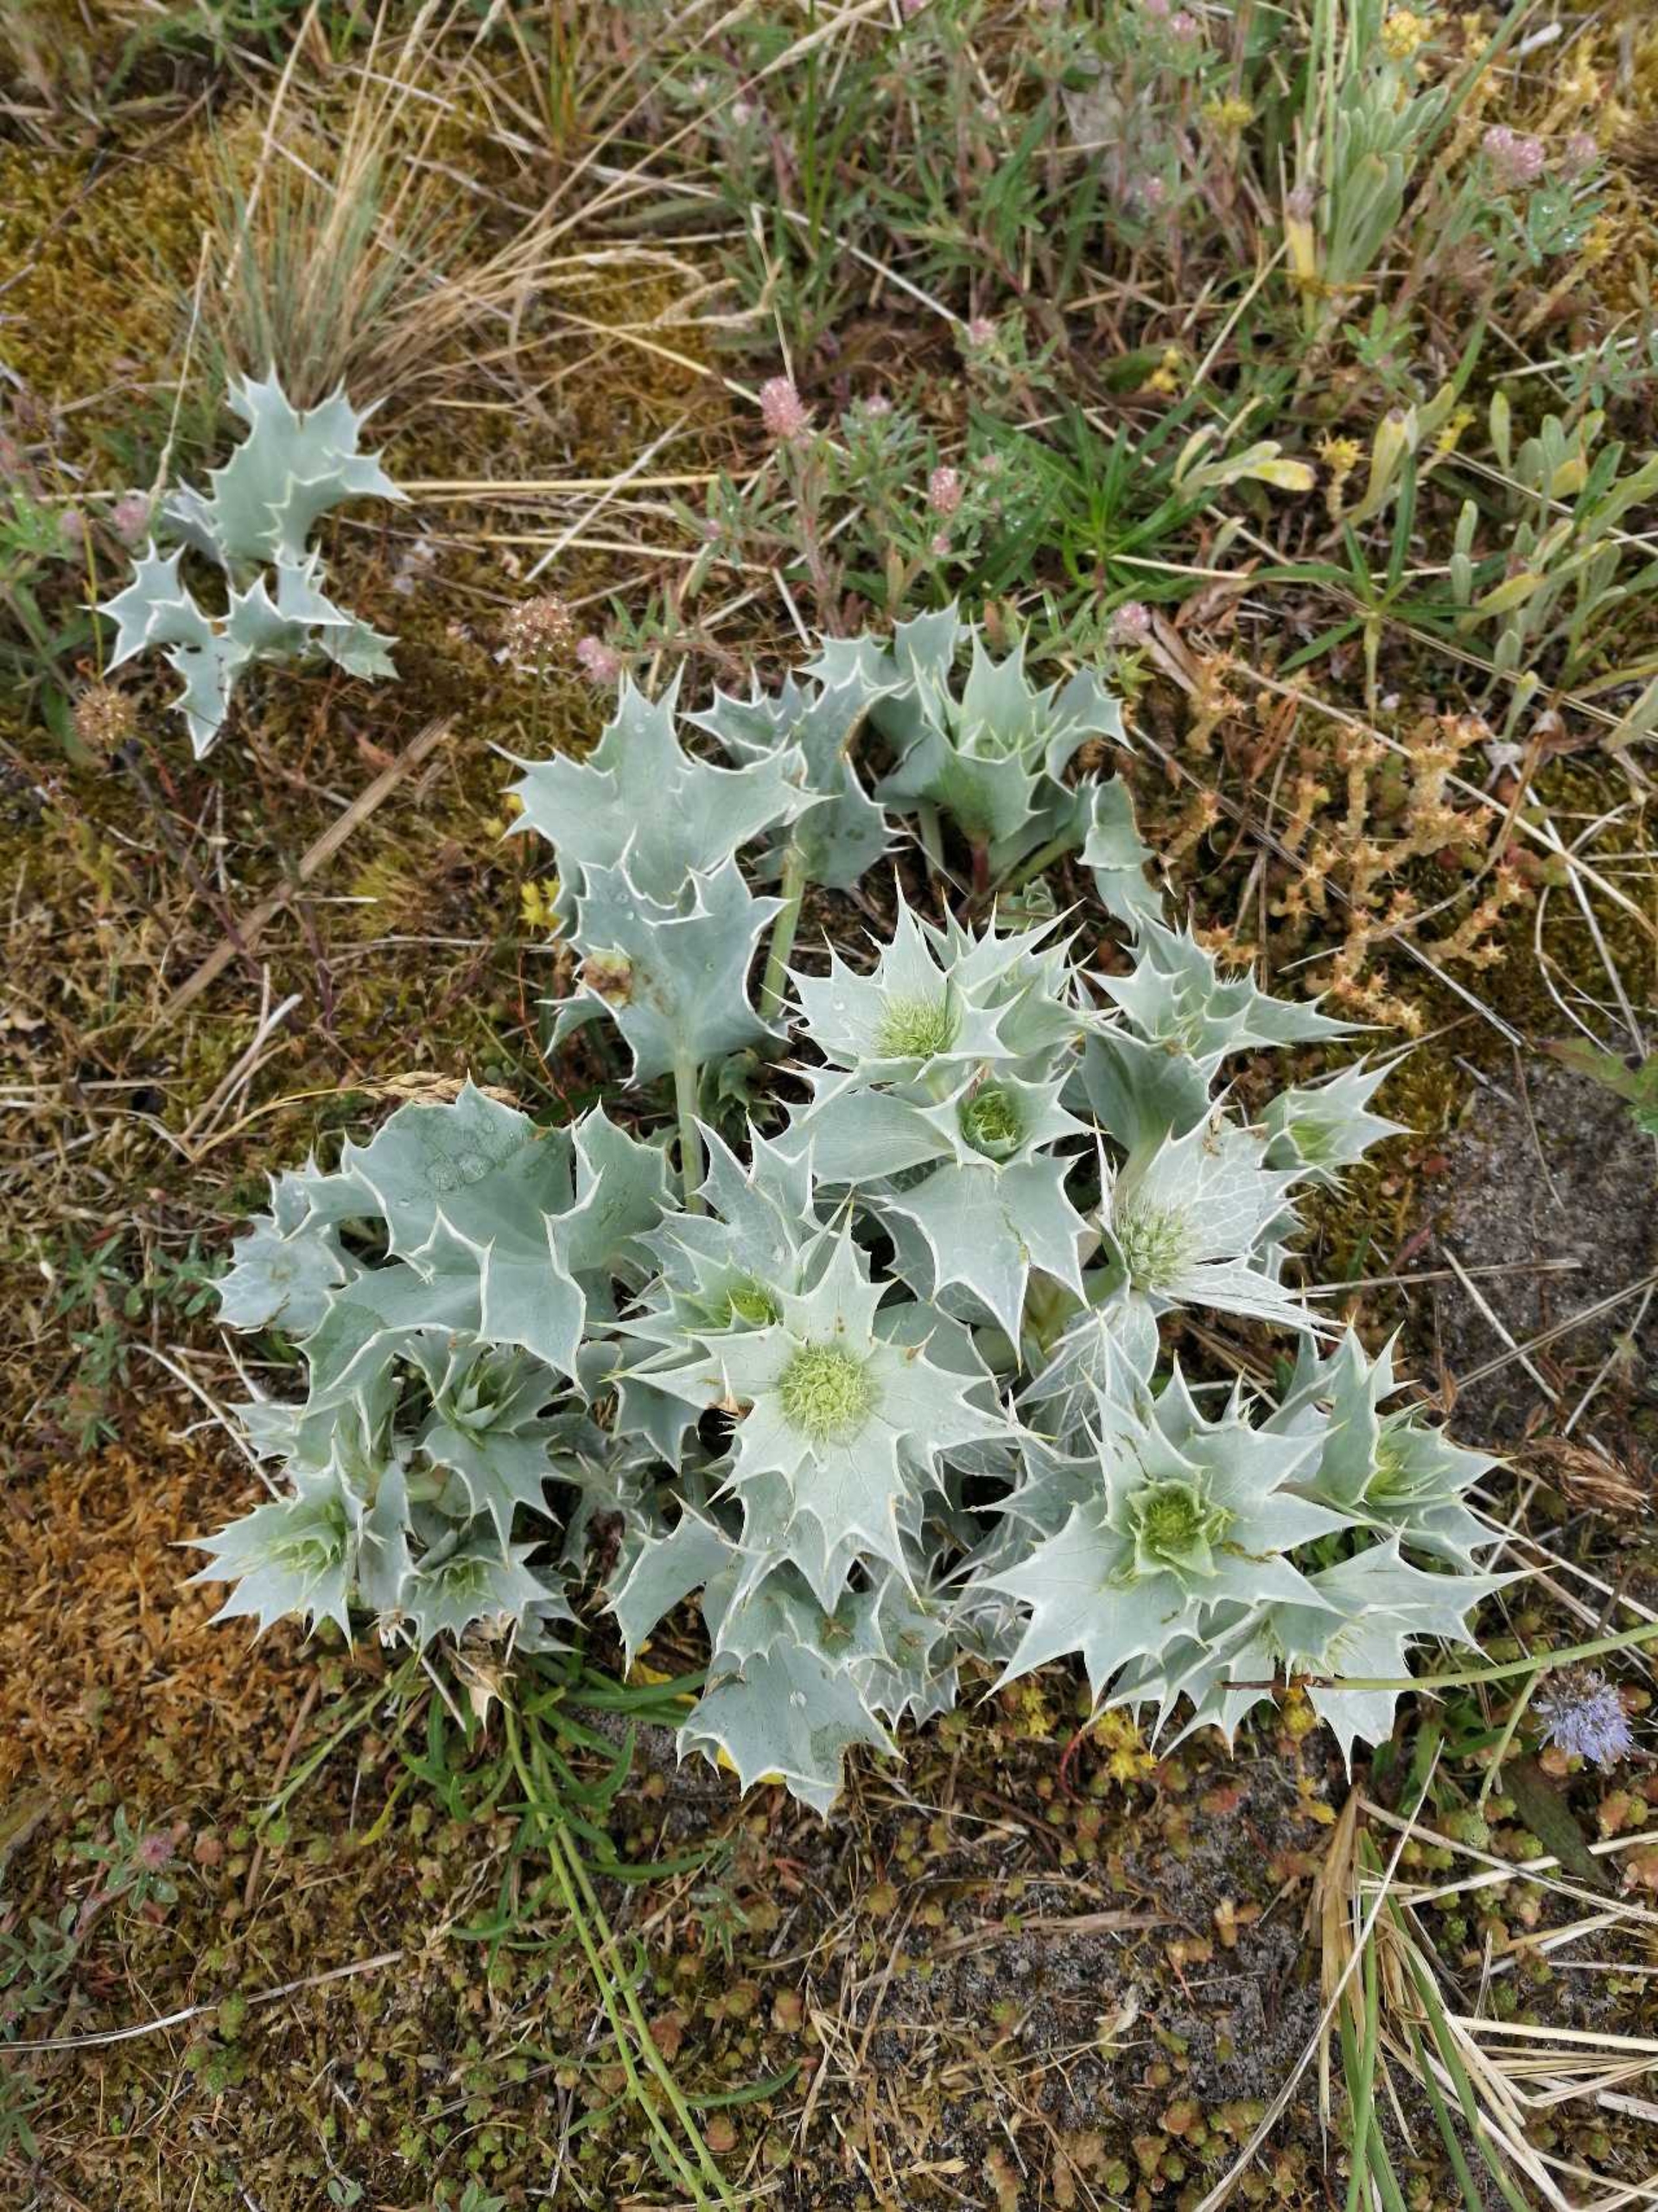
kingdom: Plantae
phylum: Tracheophyta
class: Magnoliopsida
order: Apiales
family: Apiaceae
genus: Eryngium
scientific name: Eryngium maritimum
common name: Strand-mandstro
